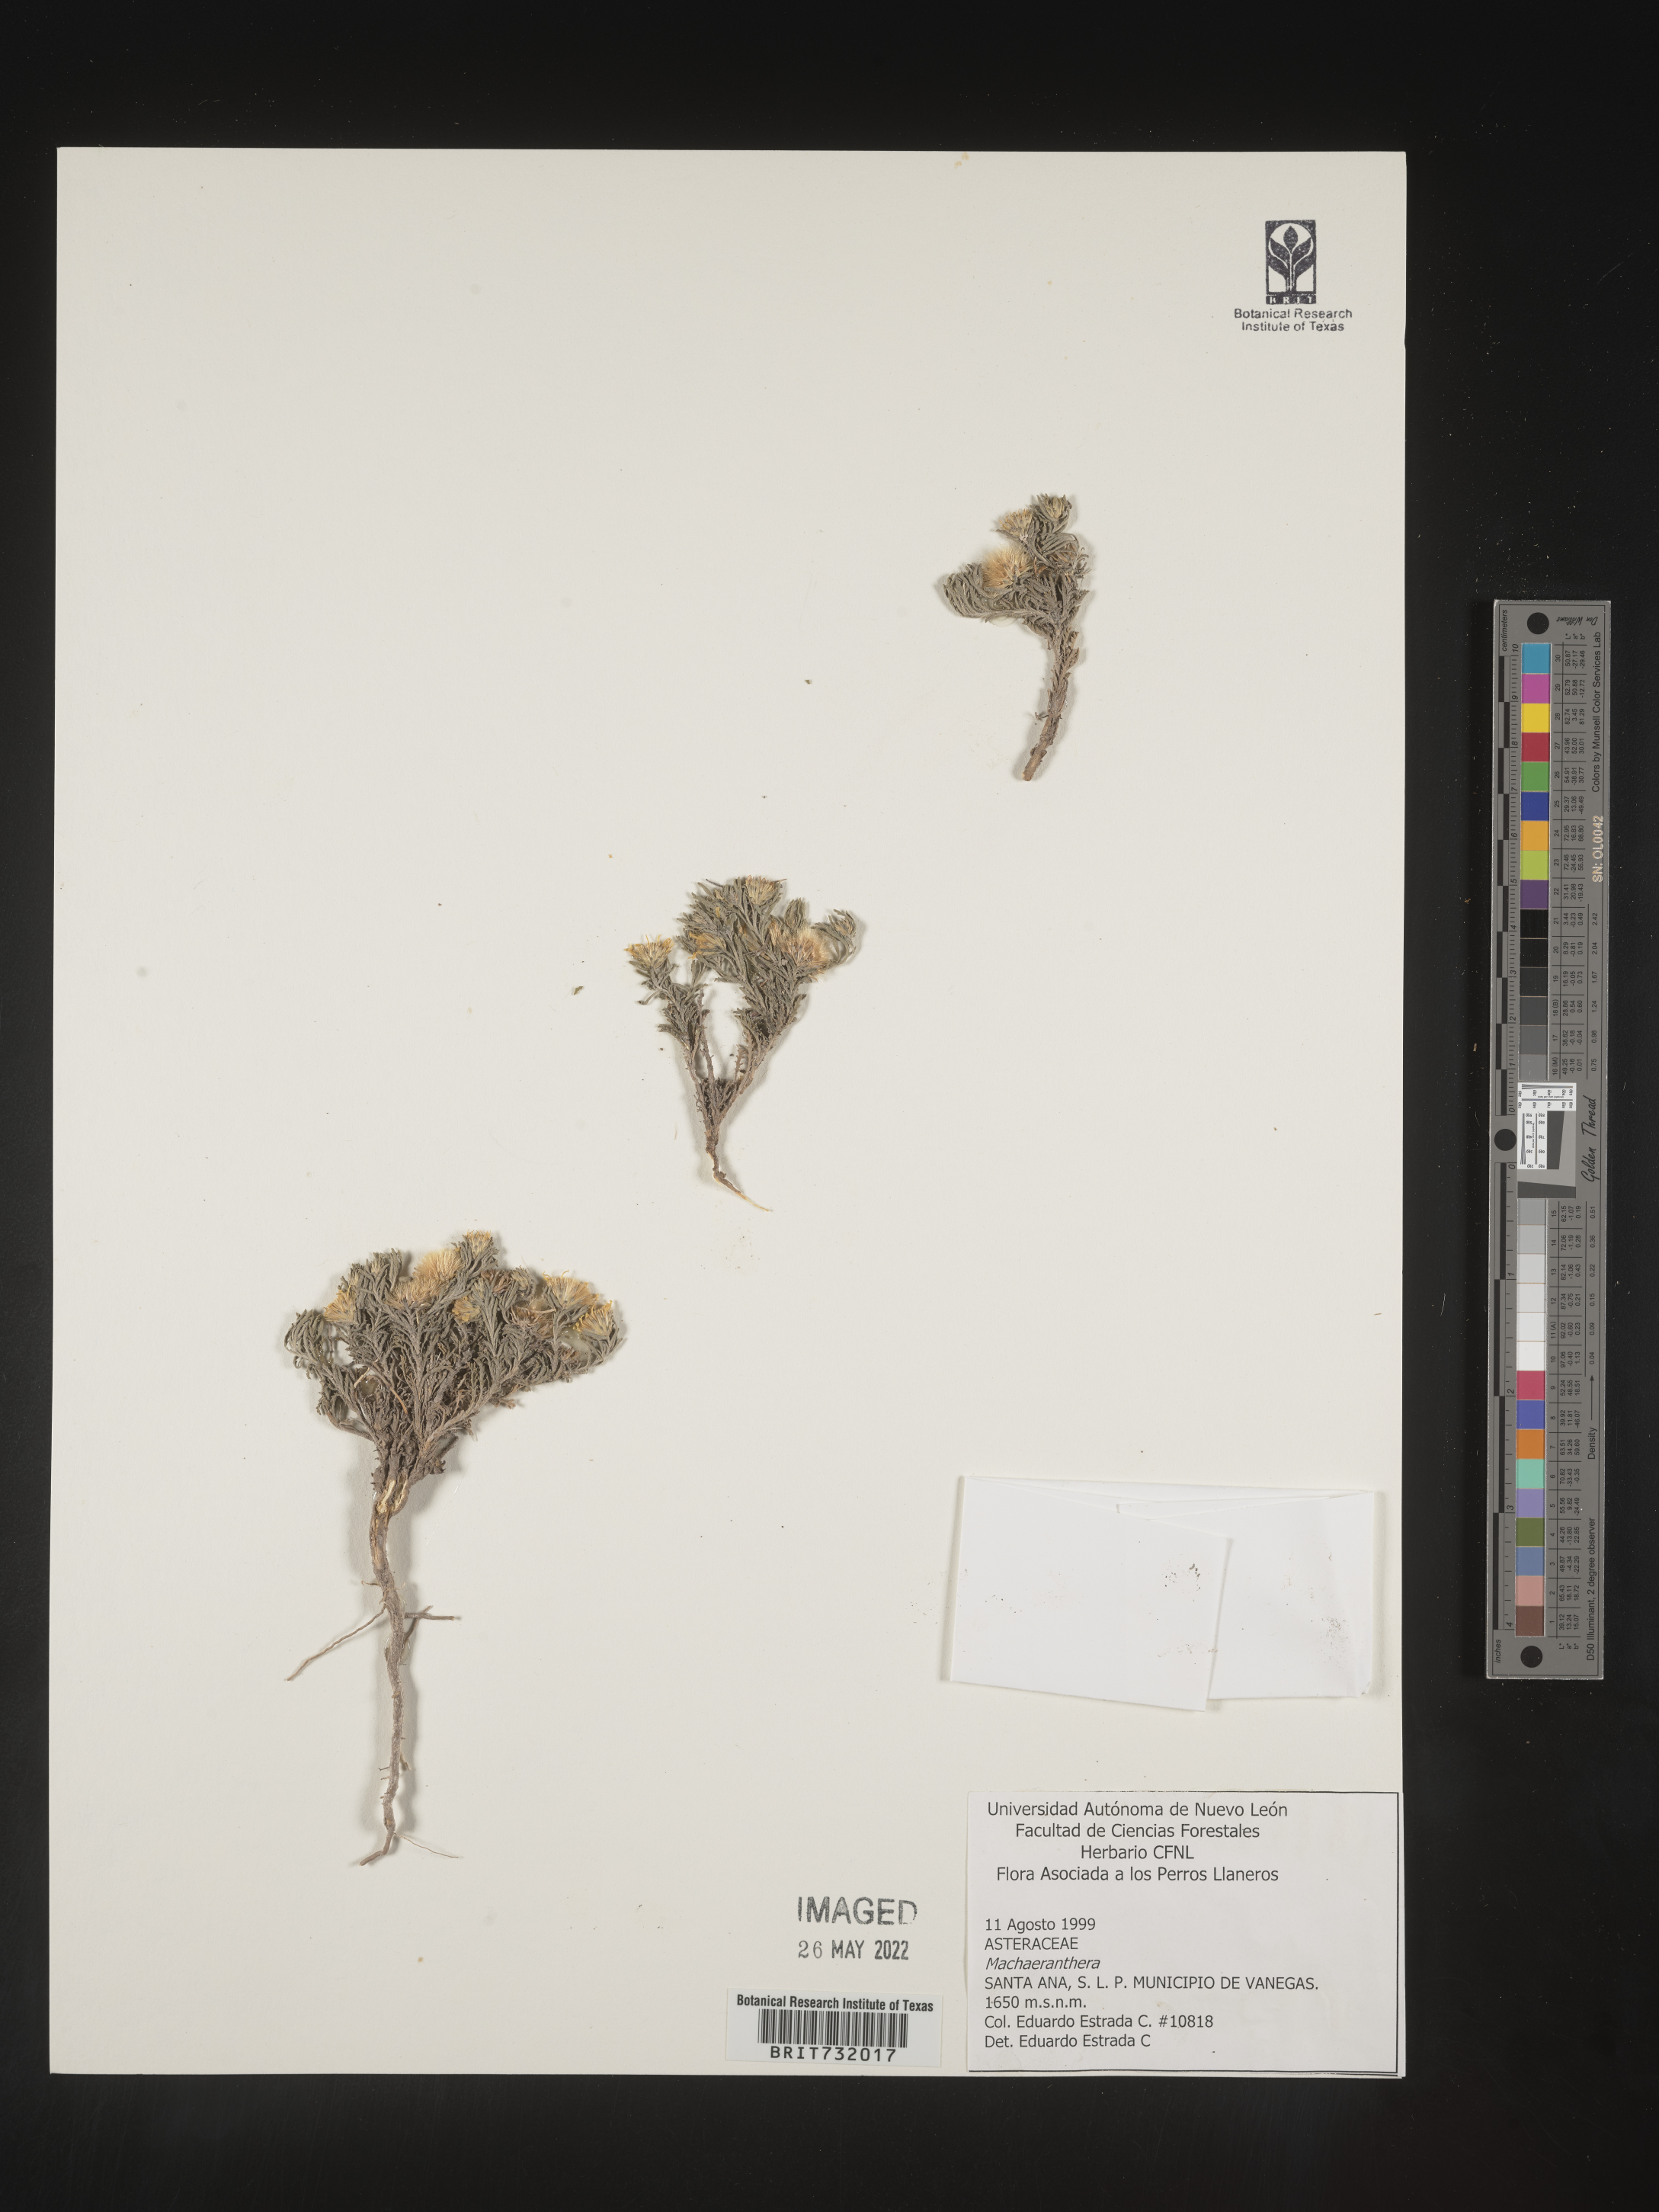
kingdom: Plantae
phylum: Tracheophyta
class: Magnoliopsida
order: Asterales
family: Asteraceae
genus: Machaeranthera
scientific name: Machaeranthera
